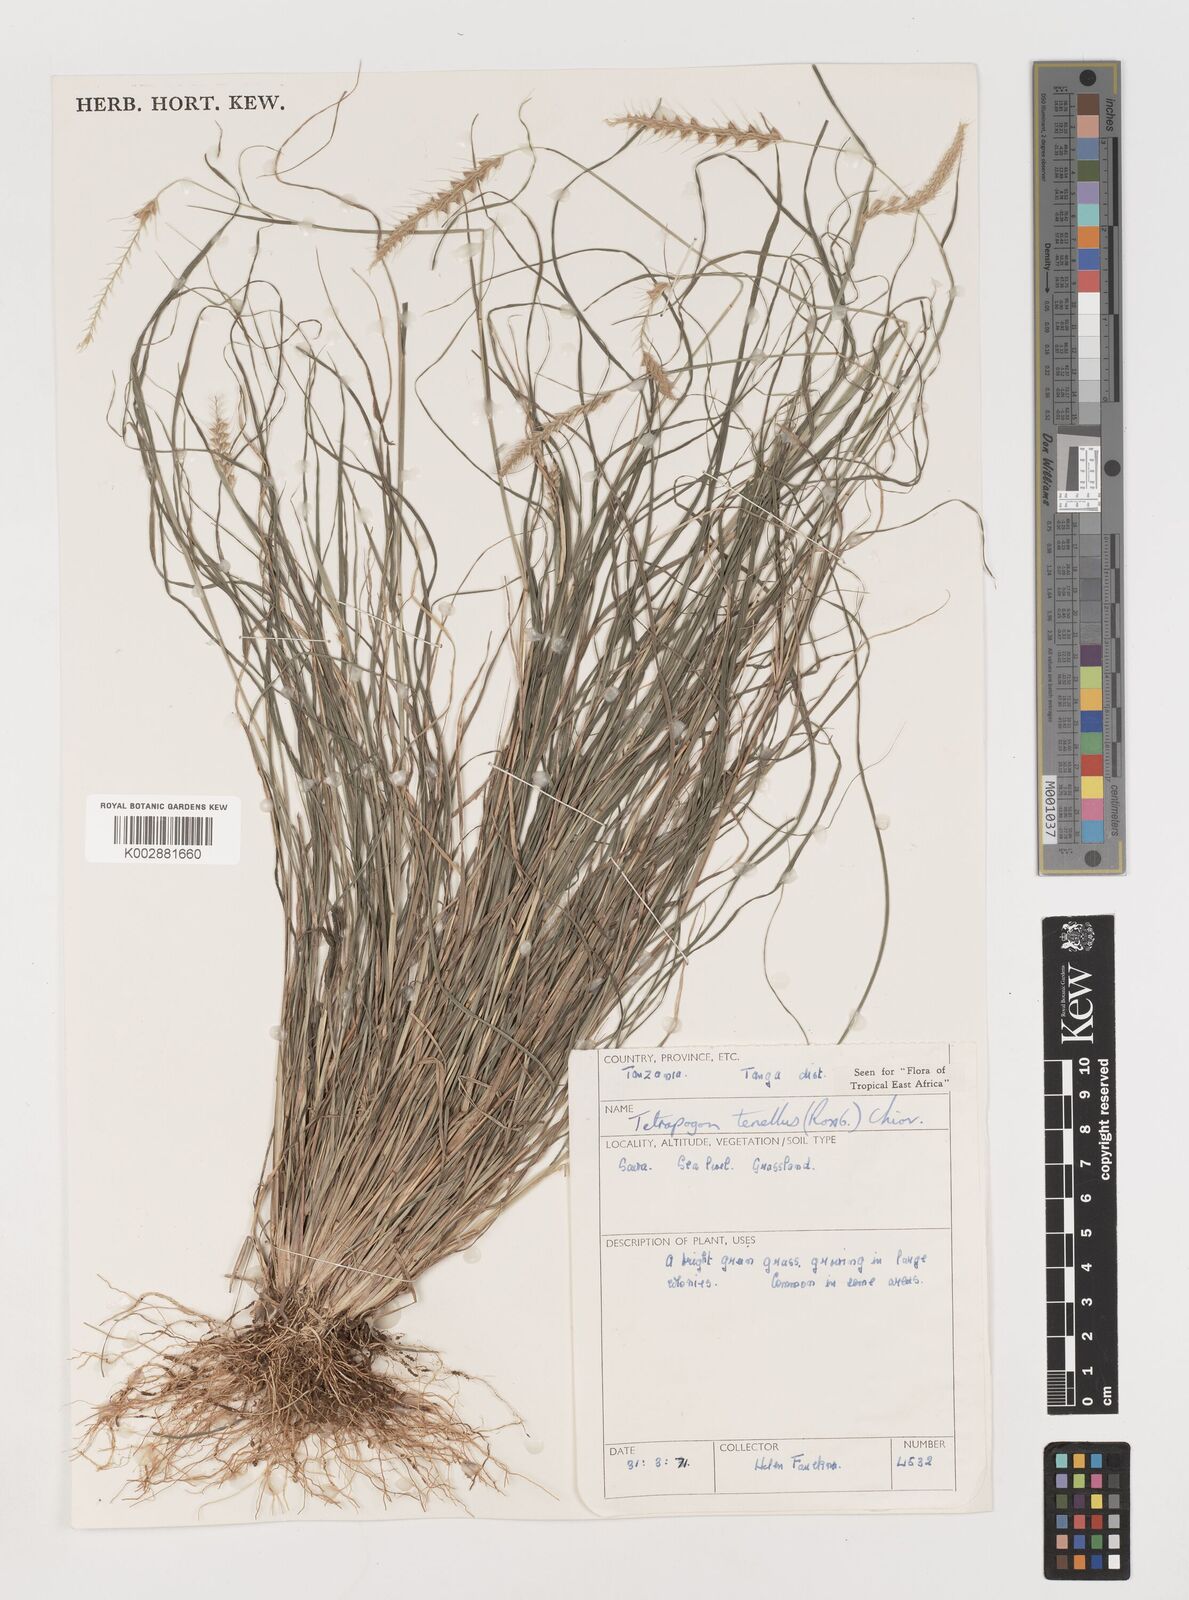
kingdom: Plantae
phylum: Tracheophyta
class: Liliopsida
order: Poales
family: Poaceae
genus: Tetrapogon
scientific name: Tetrapogon tenellus
